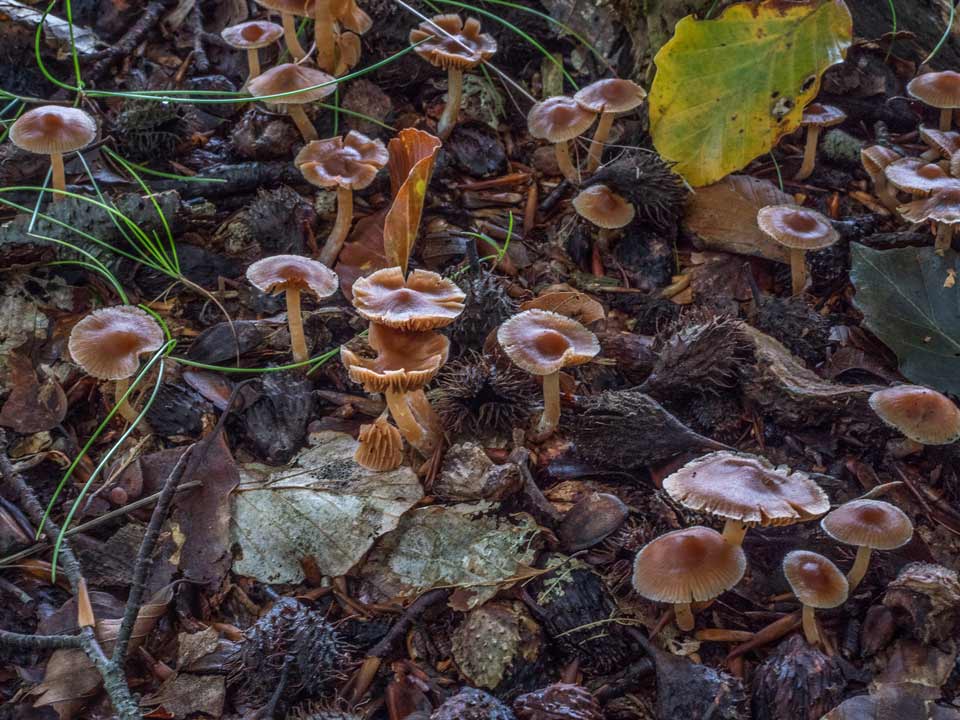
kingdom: Fungi
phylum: Basidiomycota
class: Agaricomycetes
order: Agaricales
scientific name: Agaricales
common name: champignonordenen
